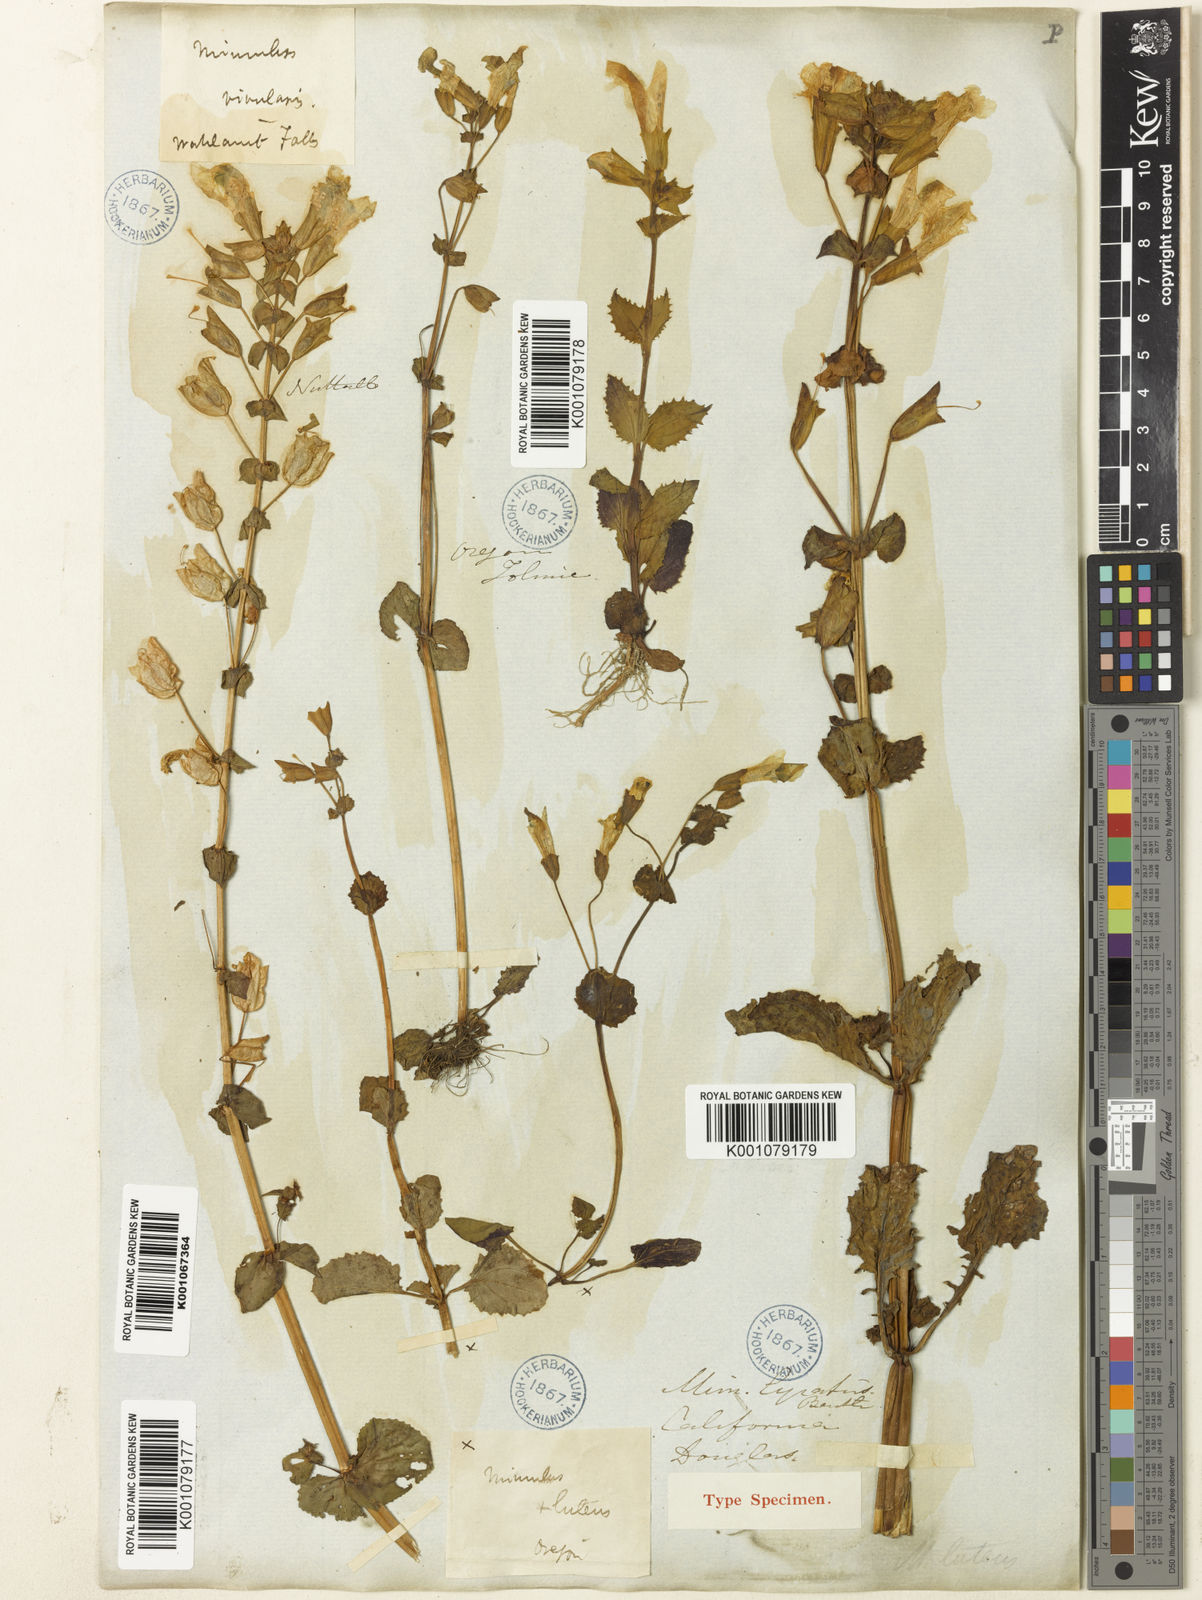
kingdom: Plantae
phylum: Tracheophyta
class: Magnoliopsida
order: Lamiales
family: Phrymaceae
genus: Erythranthe
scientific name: Erythranthe guttata
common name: Monkeyflower
